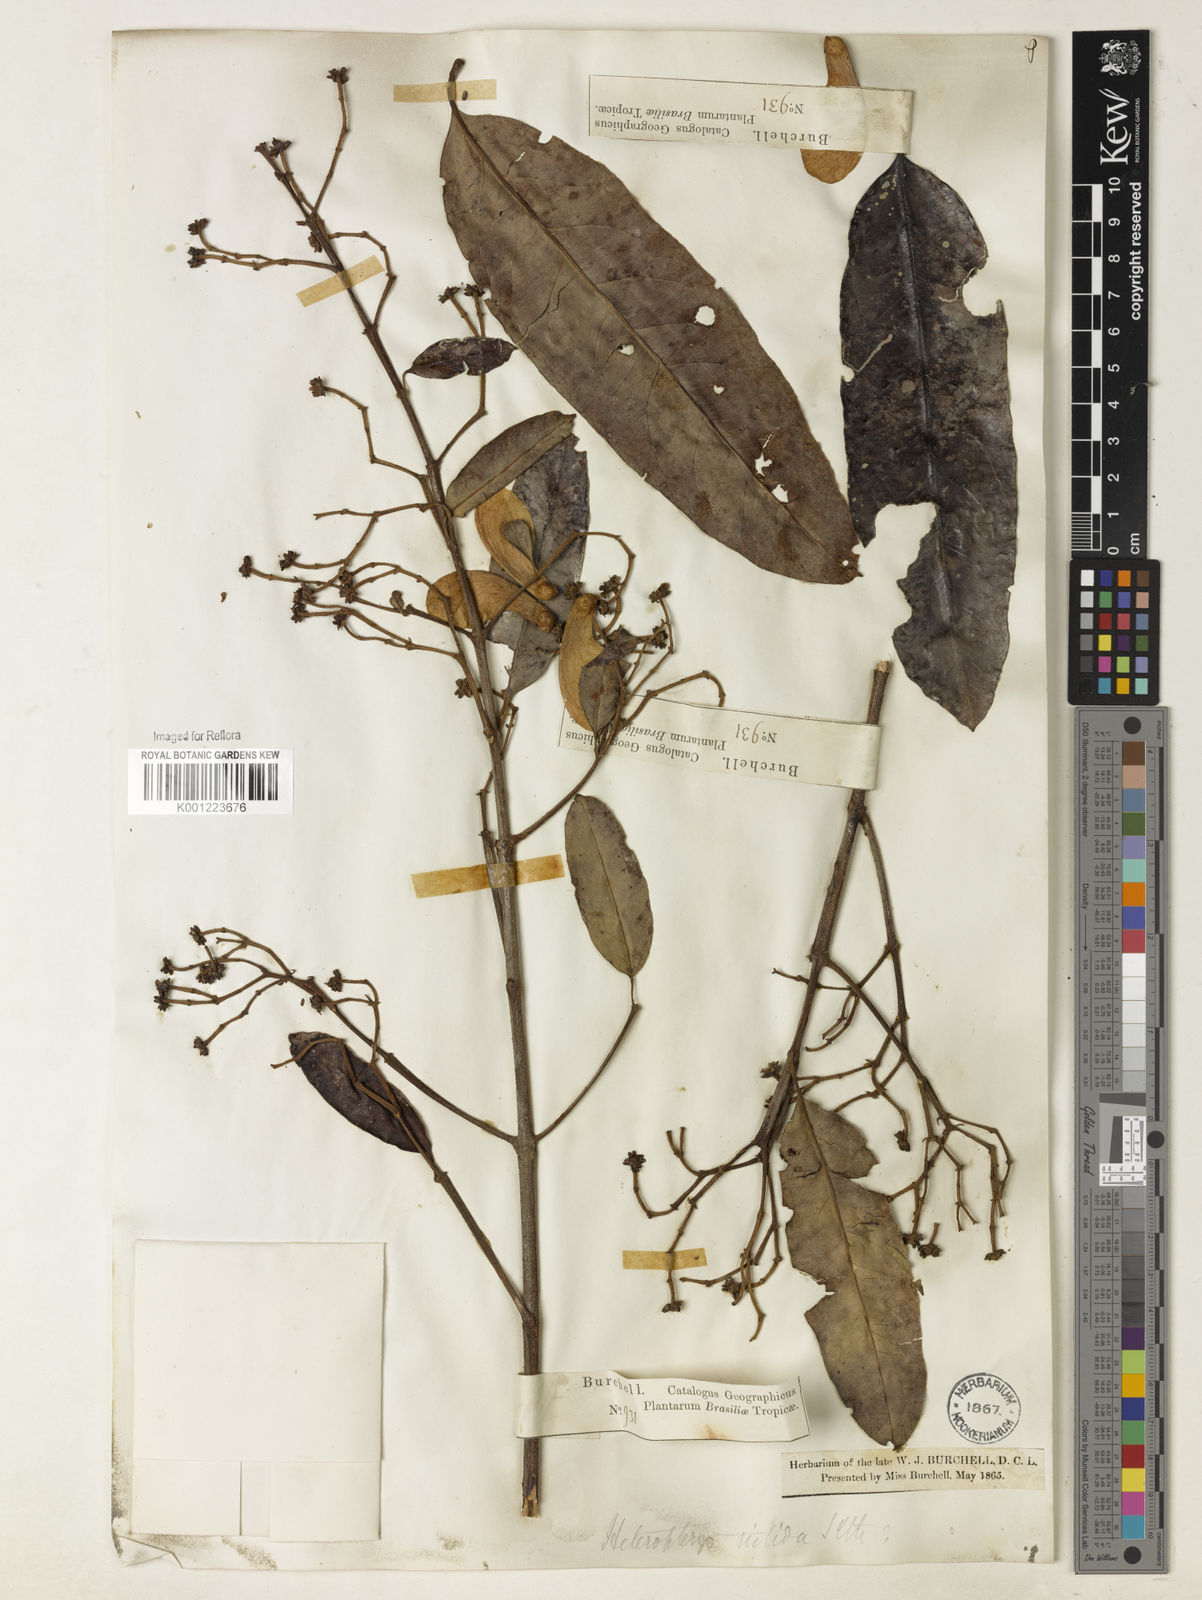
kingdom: Plantae
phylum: Tracheophyta
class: Magnoliopsida
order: Malpighiales
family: Malpighiaceae
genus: Heteropterys
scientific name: Heteropterys nitida
